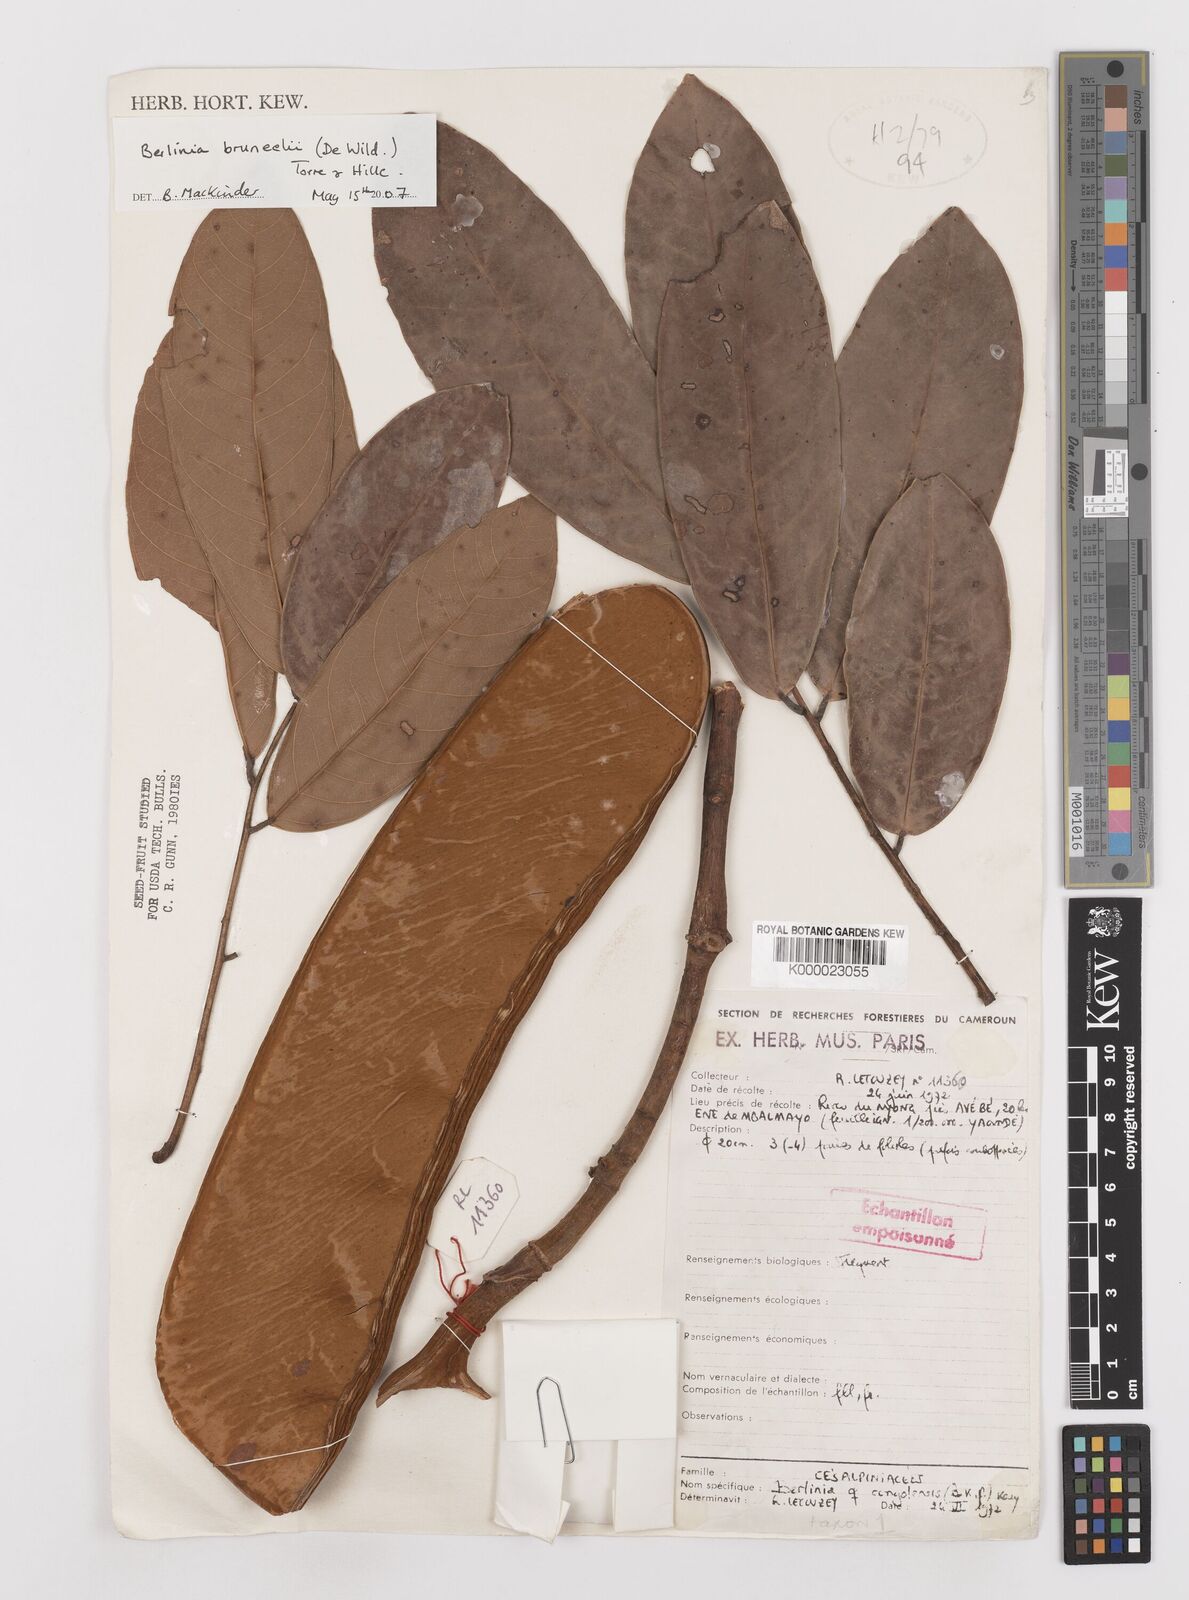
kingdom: Plantae
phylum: Tracheophyta
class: Magnoliopsida
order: Fabales
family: Fabaceae
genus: Berlinia
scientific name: Berlinia
